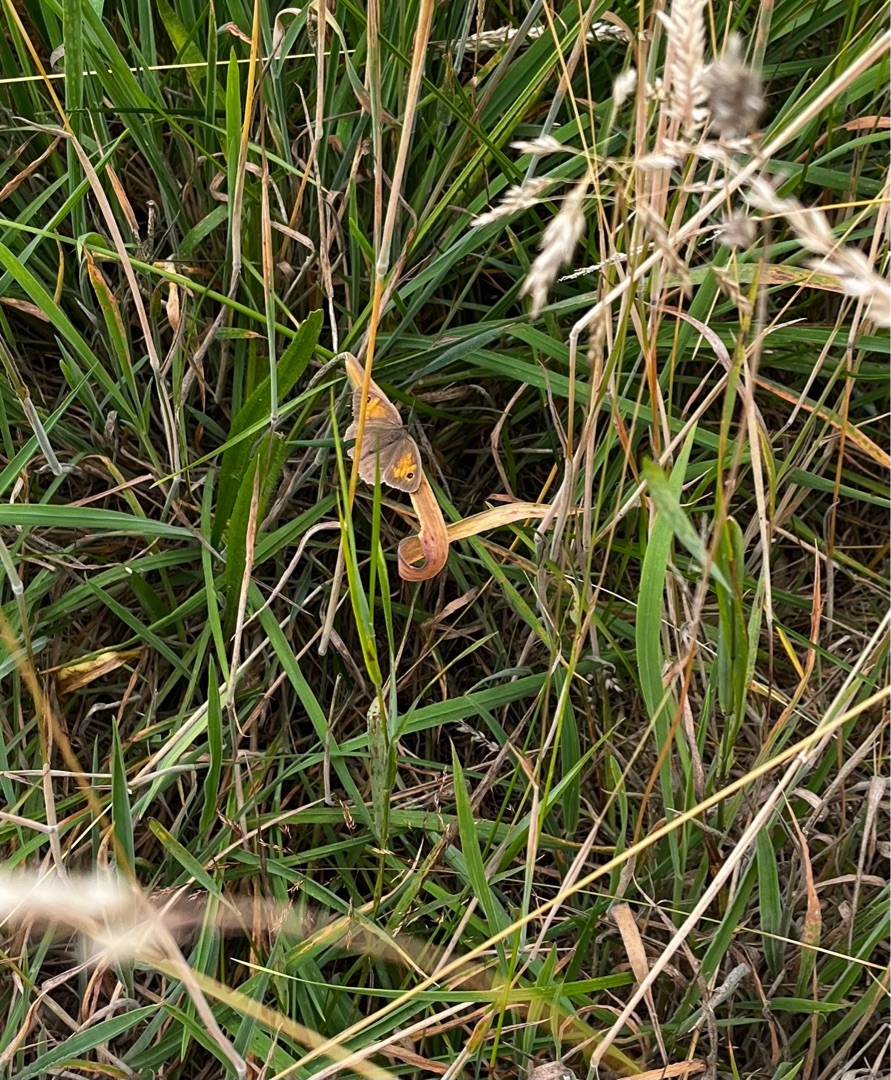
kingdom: Animalia
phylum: Arthropoda
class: Insecta
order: Lepidoptera
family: Nymphalidae
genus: Maniola
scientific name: Maniola jurtina
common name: Græsrandøje
